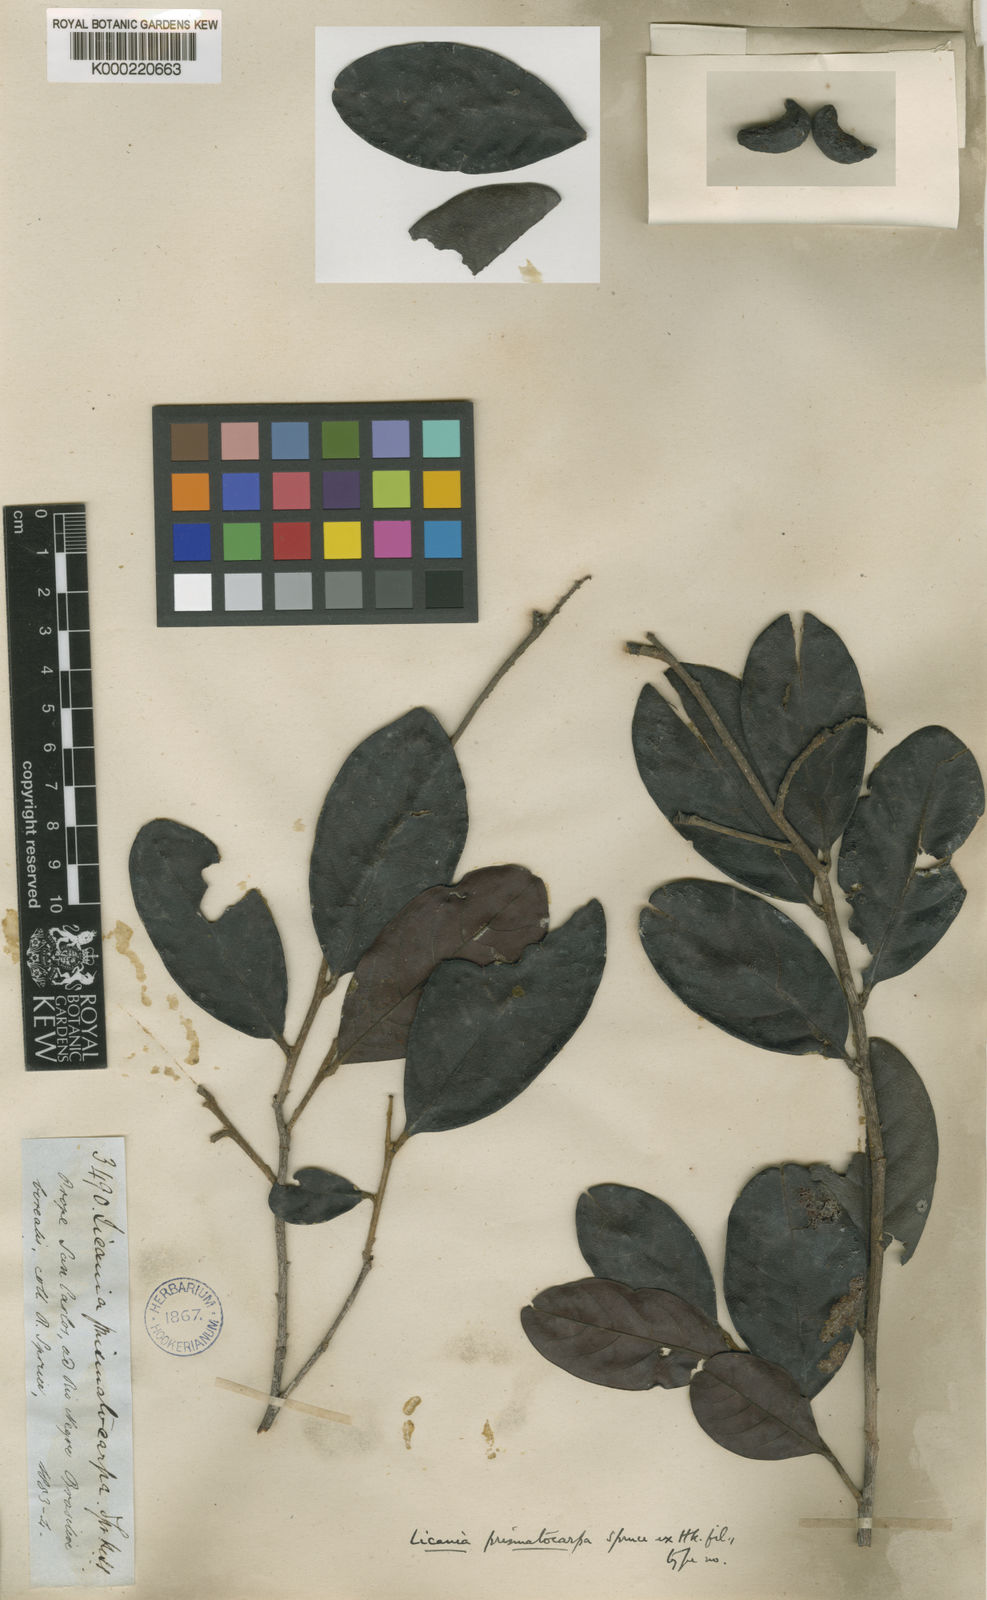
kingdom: Plantae
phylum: Tracheophyta
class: Magnoliopsida
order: Malpighiales
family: Chrysobalanaceae
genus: Hymenopus
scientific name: Hymenopus prismatocarpus
